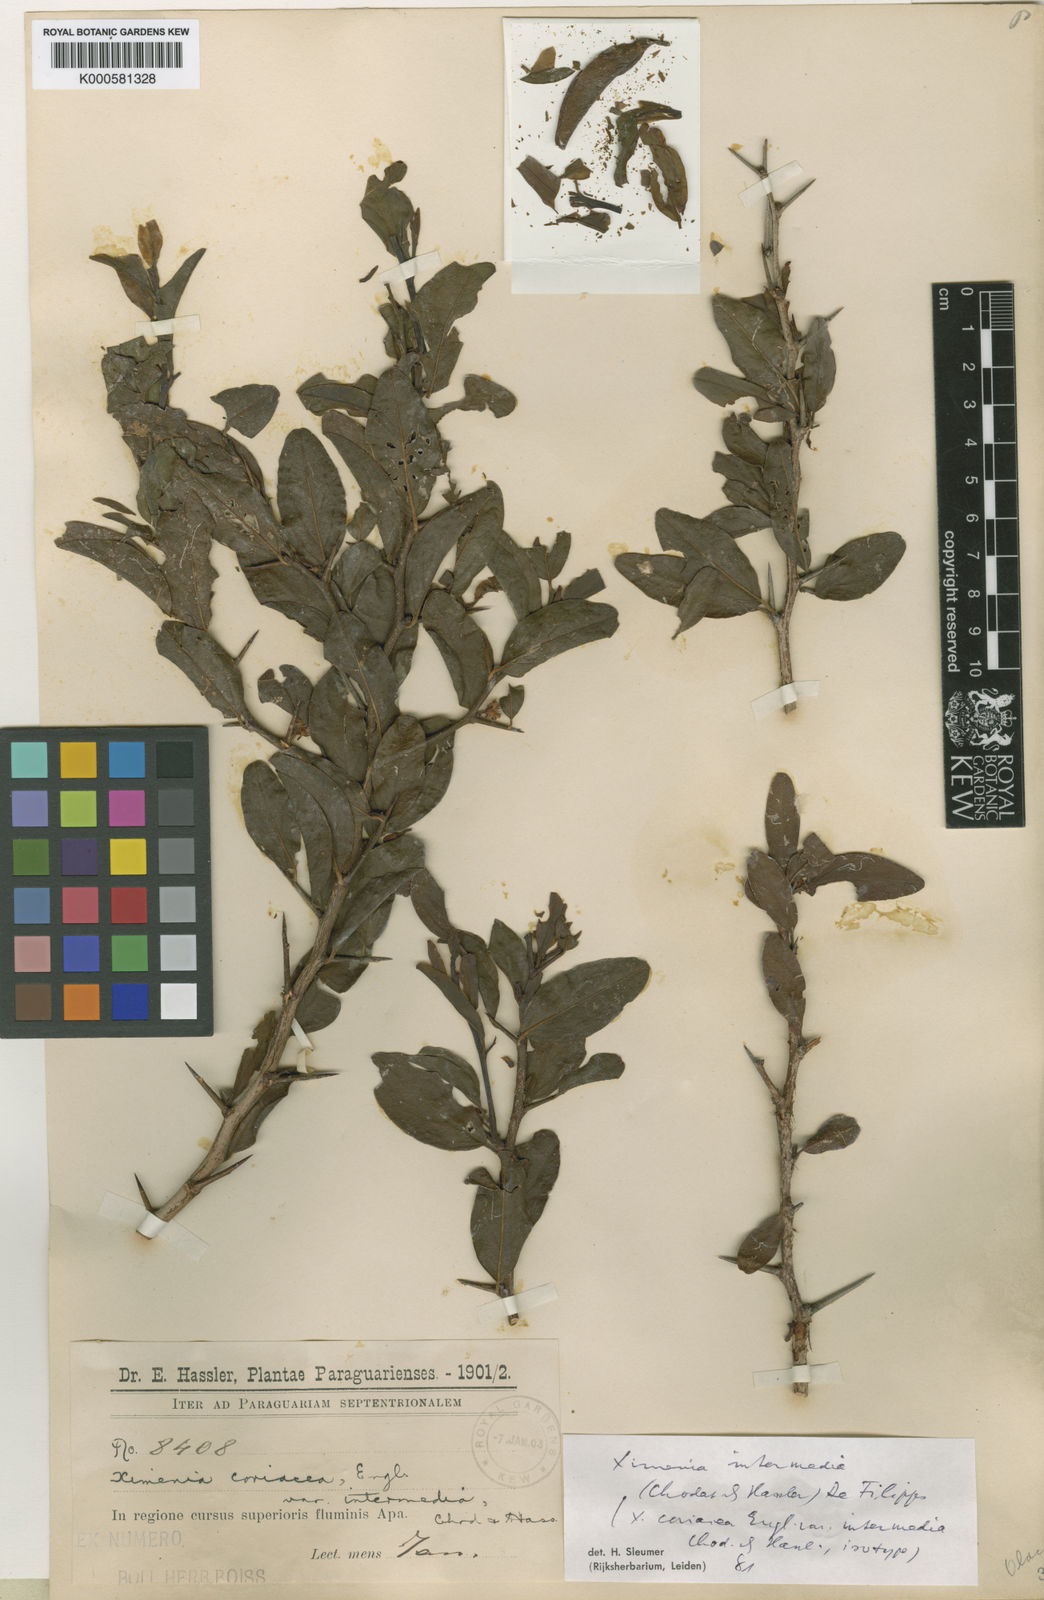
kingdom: Plantae
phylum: Tracheophyta
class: Magnoliopsida
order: Santalales
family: Ximeniaceae
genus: Ximenia
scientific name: Ximenia intermedia
